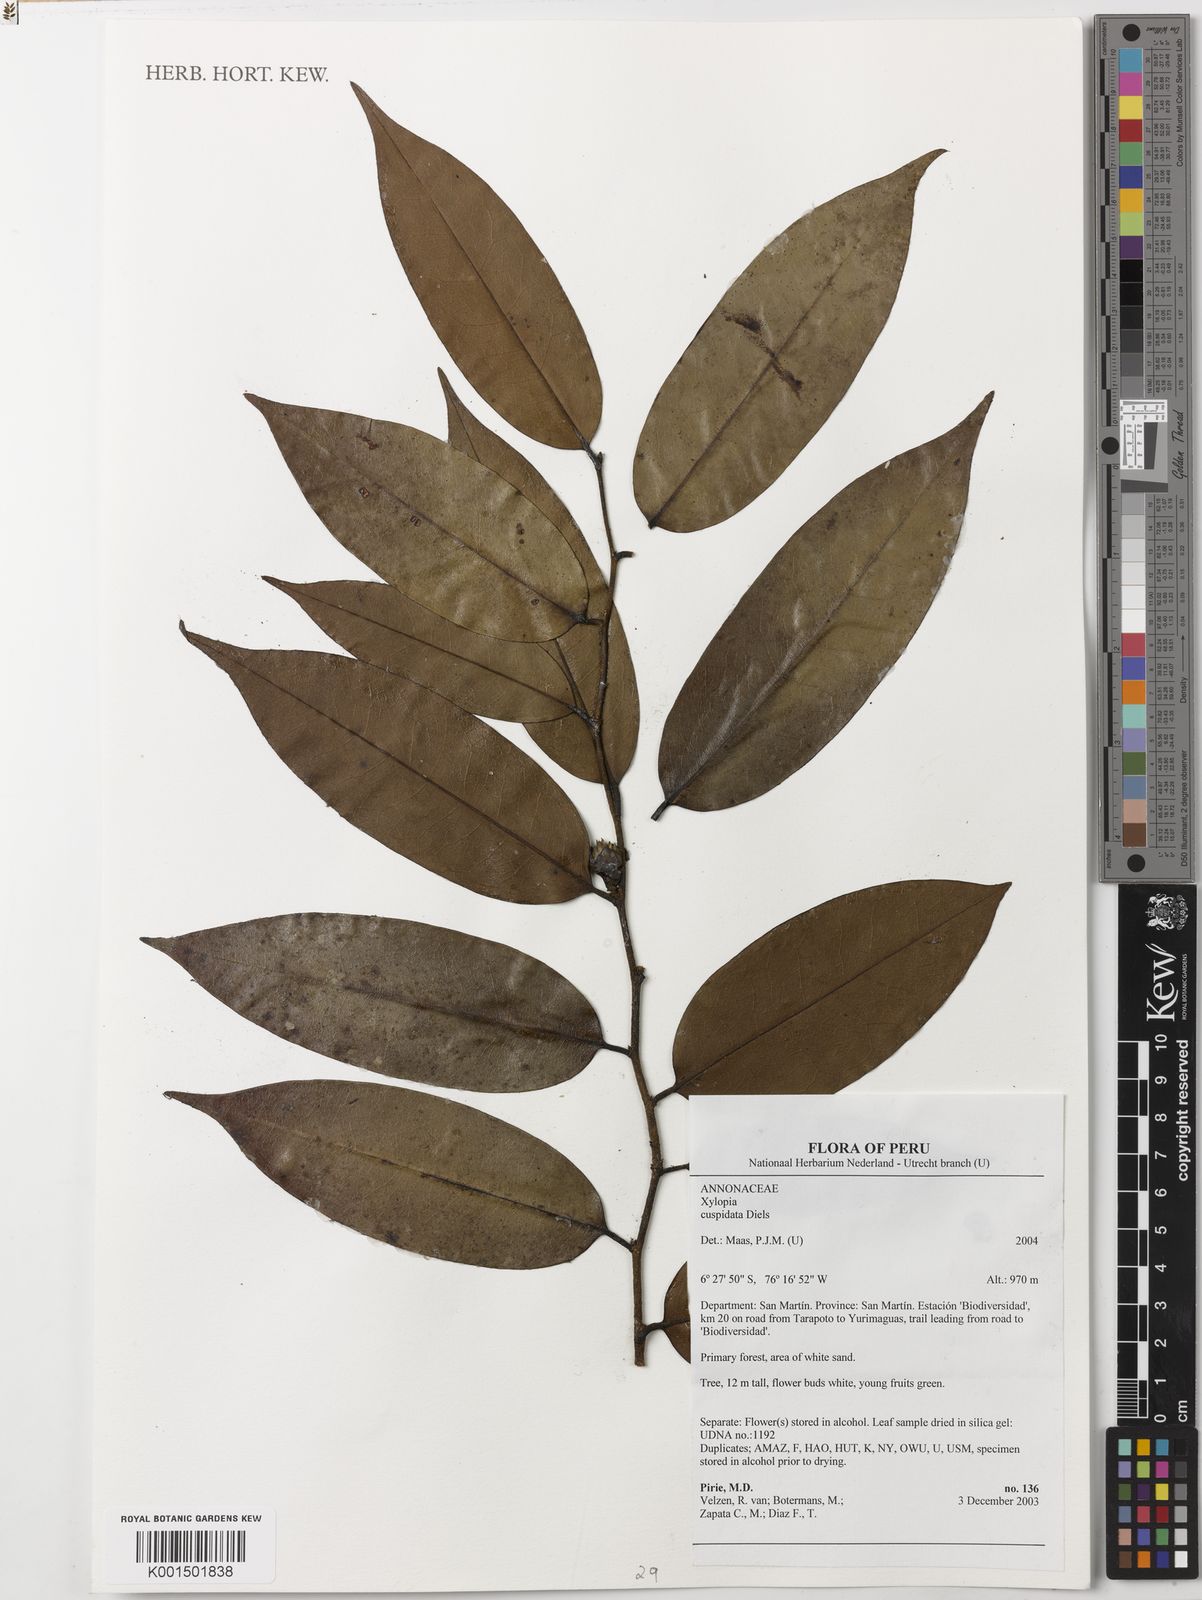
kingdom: Plantae
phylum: Tracheophyta
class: Magnoliopsida
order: Magnoliales
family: Annonaceae
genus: Xylopia
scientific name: Xylopia cuspidata
